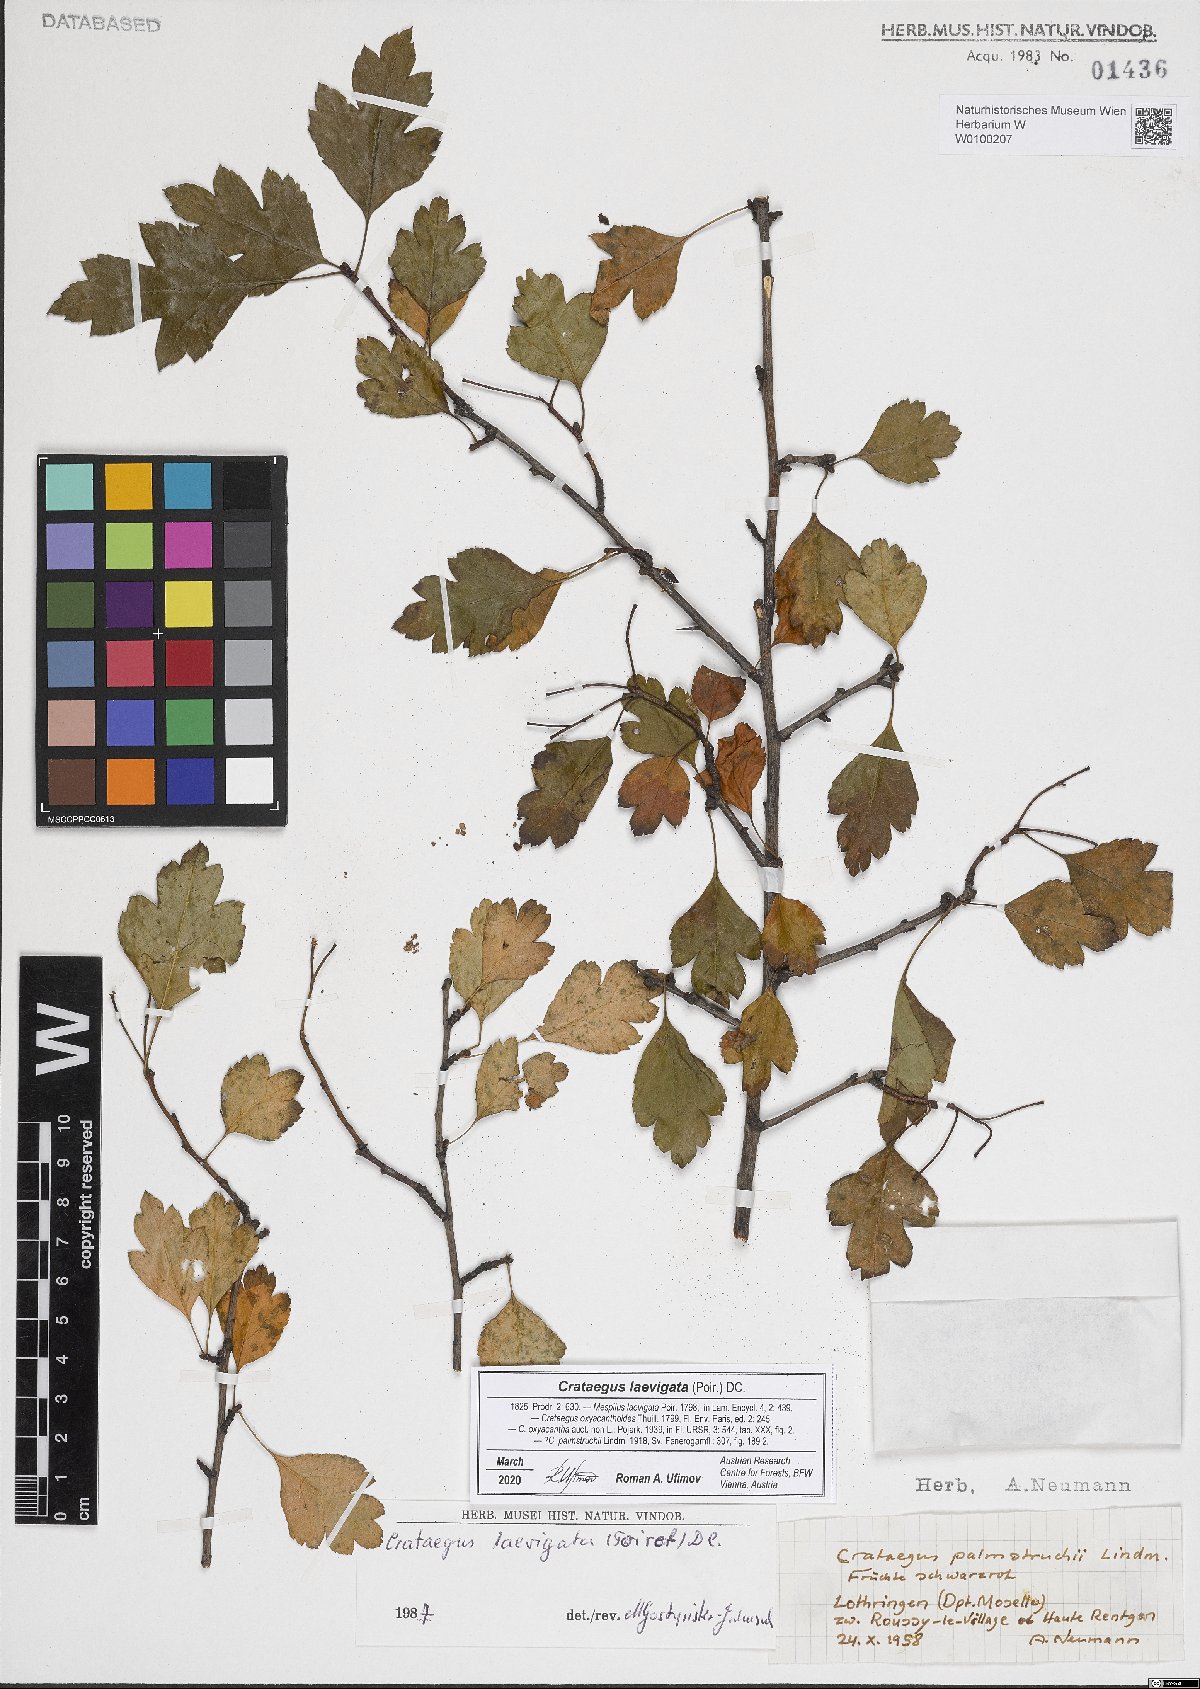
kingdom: Plantae
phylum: Tracheophyta
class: Magnoliopsida
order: Rosales
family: Rosaceae
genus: Crataegus
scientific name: Crataegus laevigata
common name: Midland hawthorn
